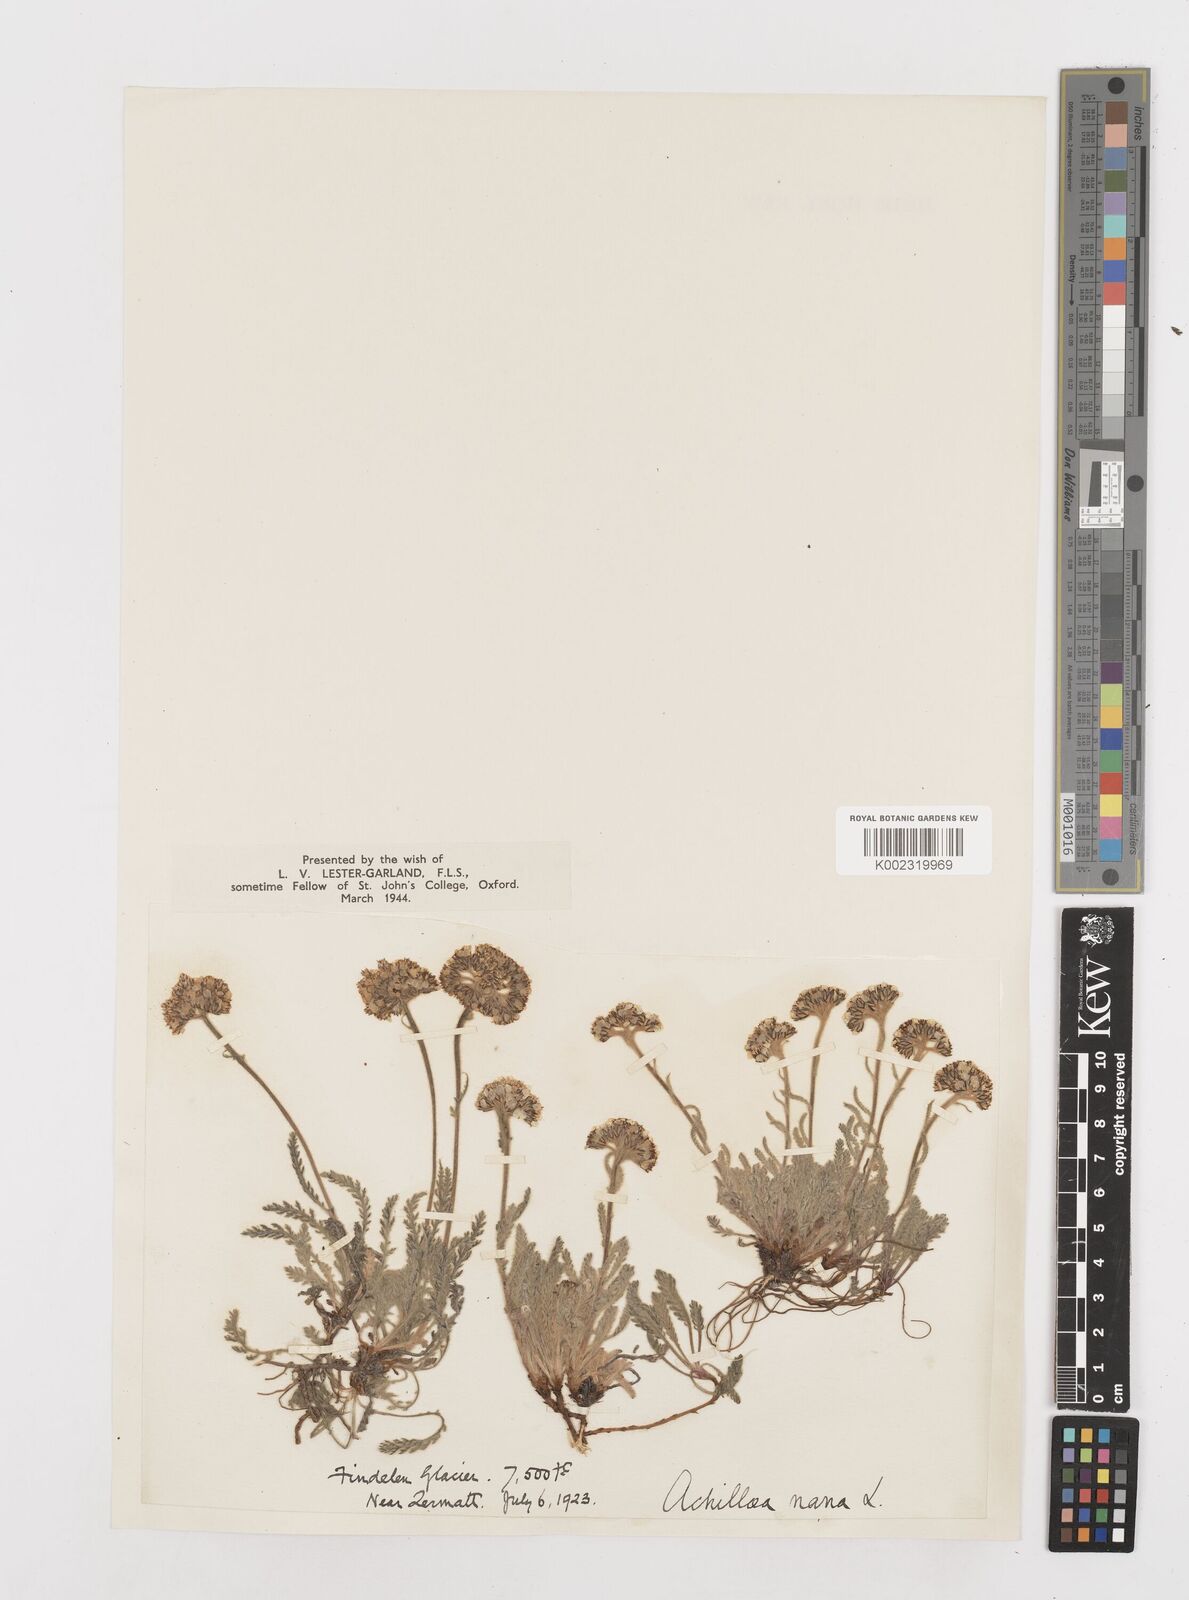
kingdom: Plantae
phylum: Tracheophyta
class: Magnoliopsida
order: Asterales
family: Asteraceae
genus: Achillea
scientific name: Achillea erba-rotta
